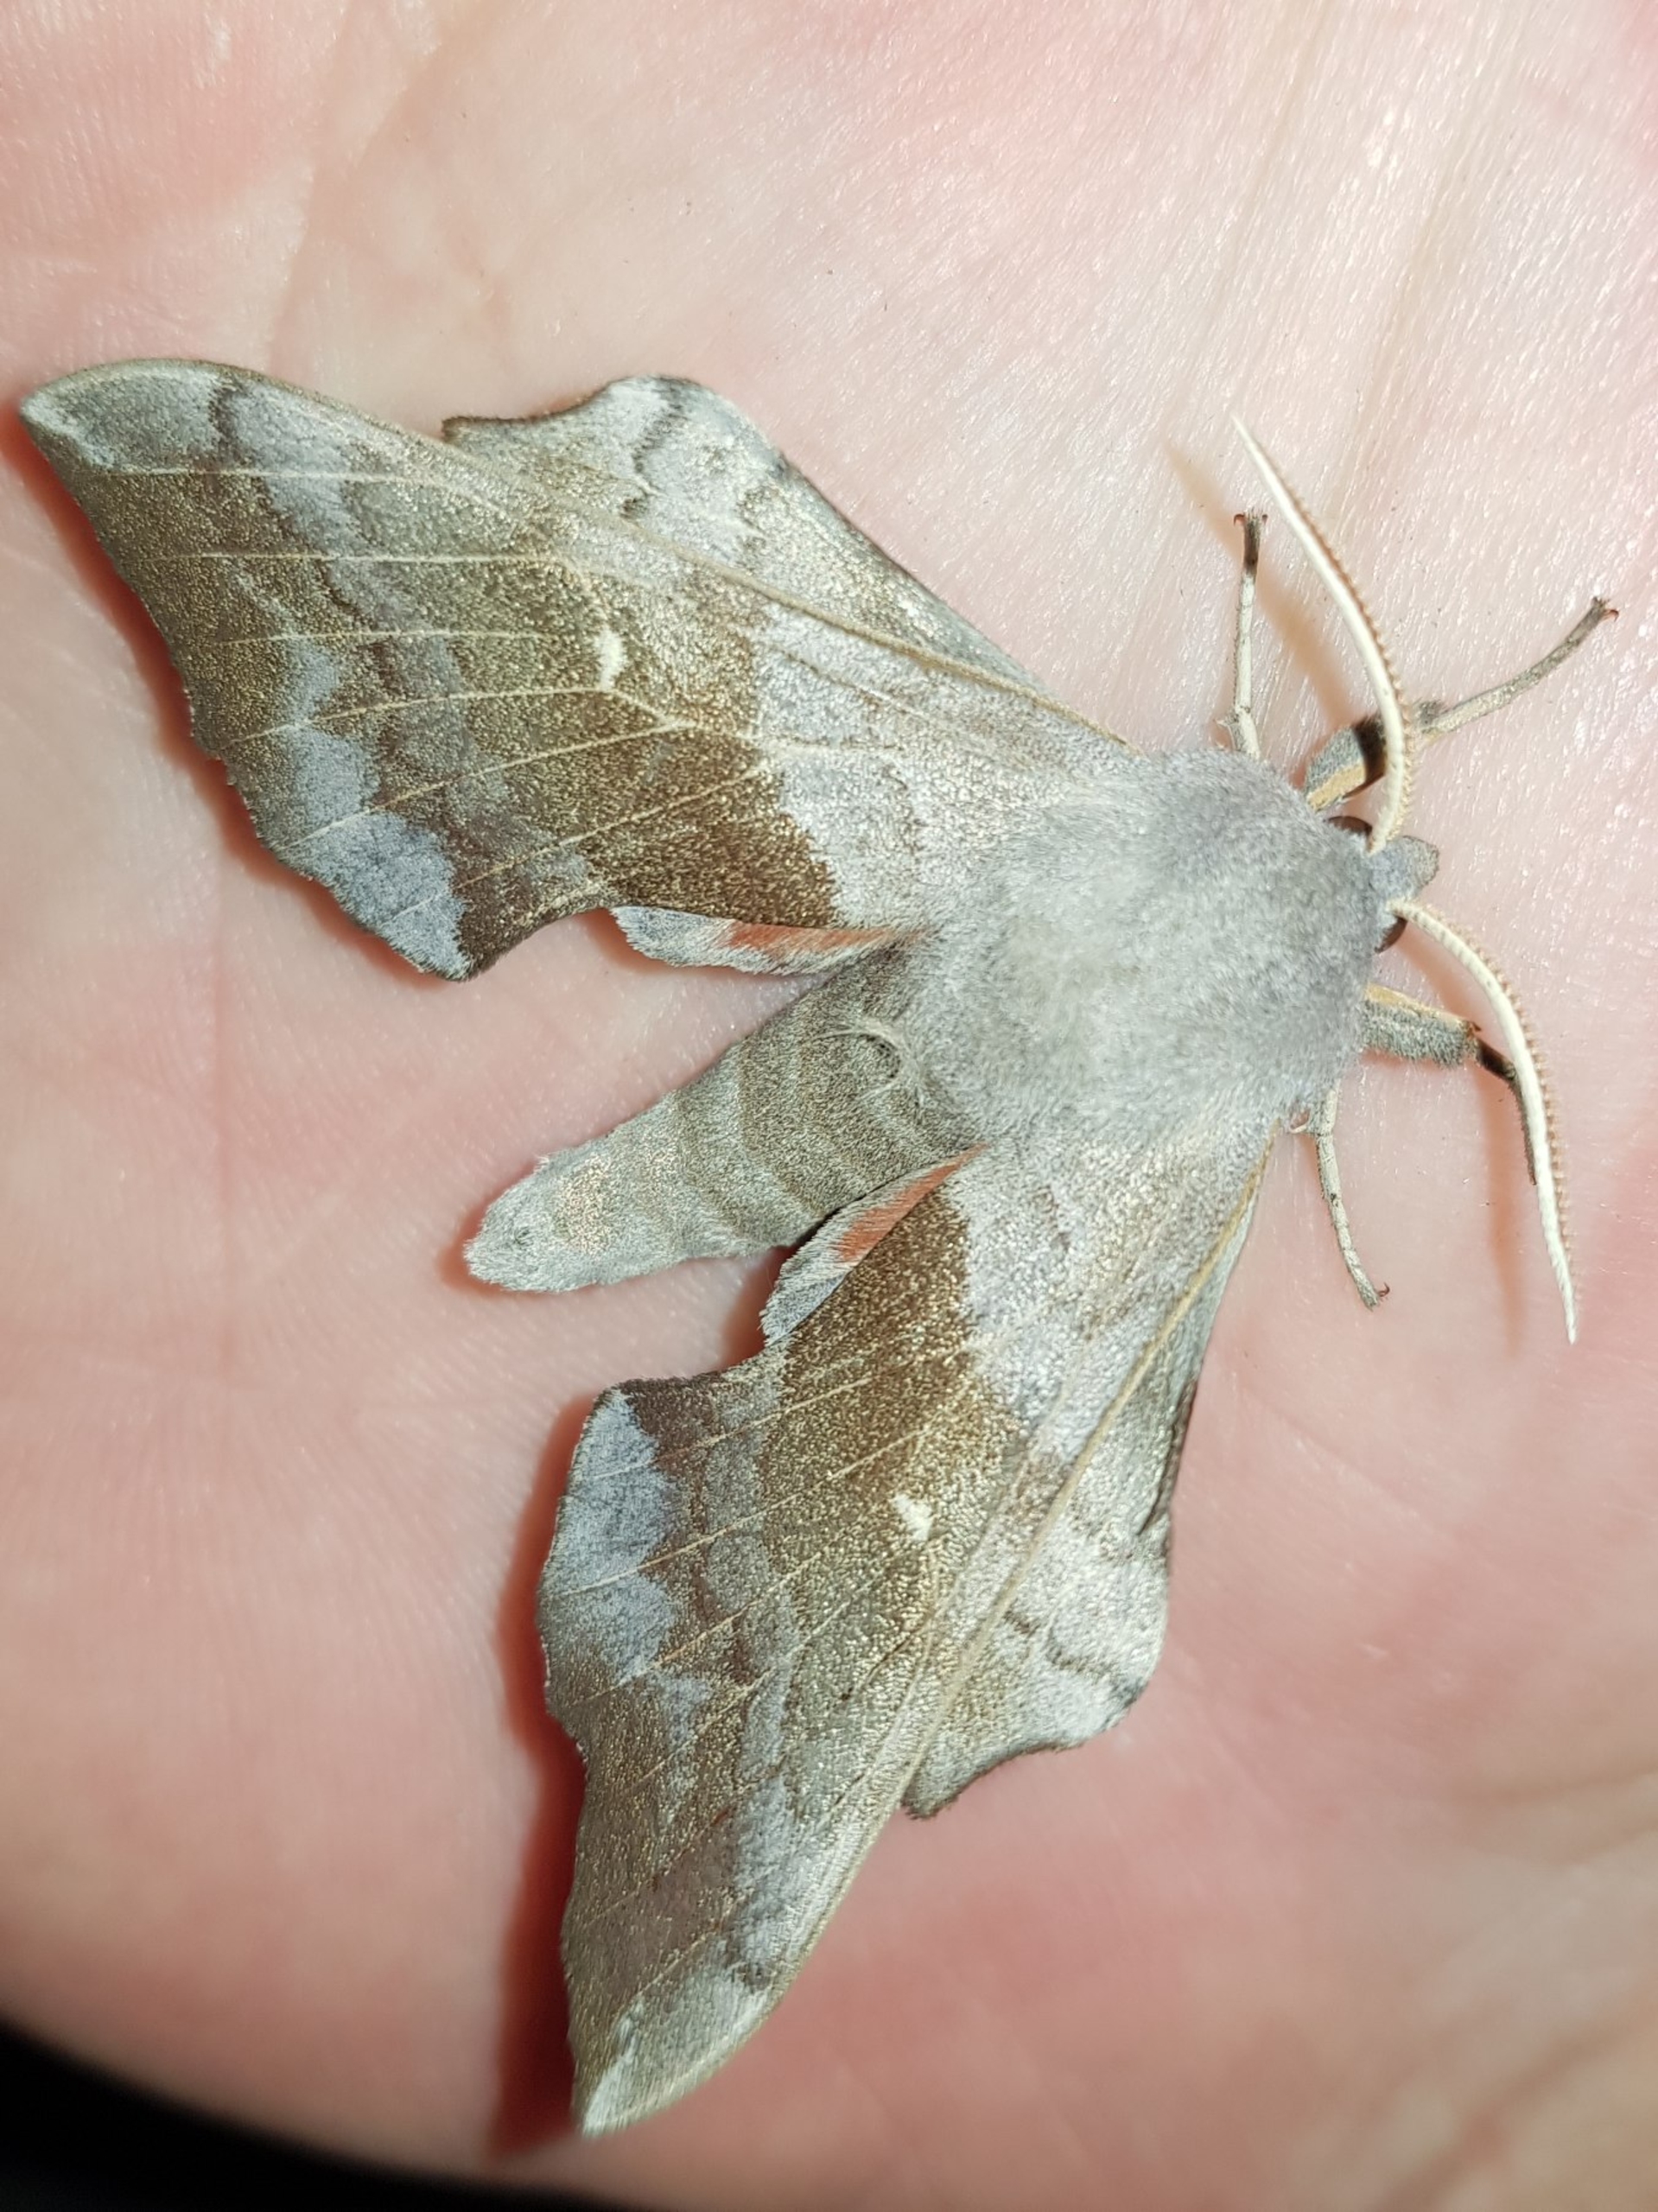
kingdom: Animalia
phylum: Arthropoda
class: Insecta
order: Lepidoptera
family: Sphingidae
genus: Laothoe
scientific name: Laothoe populi
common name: Poppelsværmer
